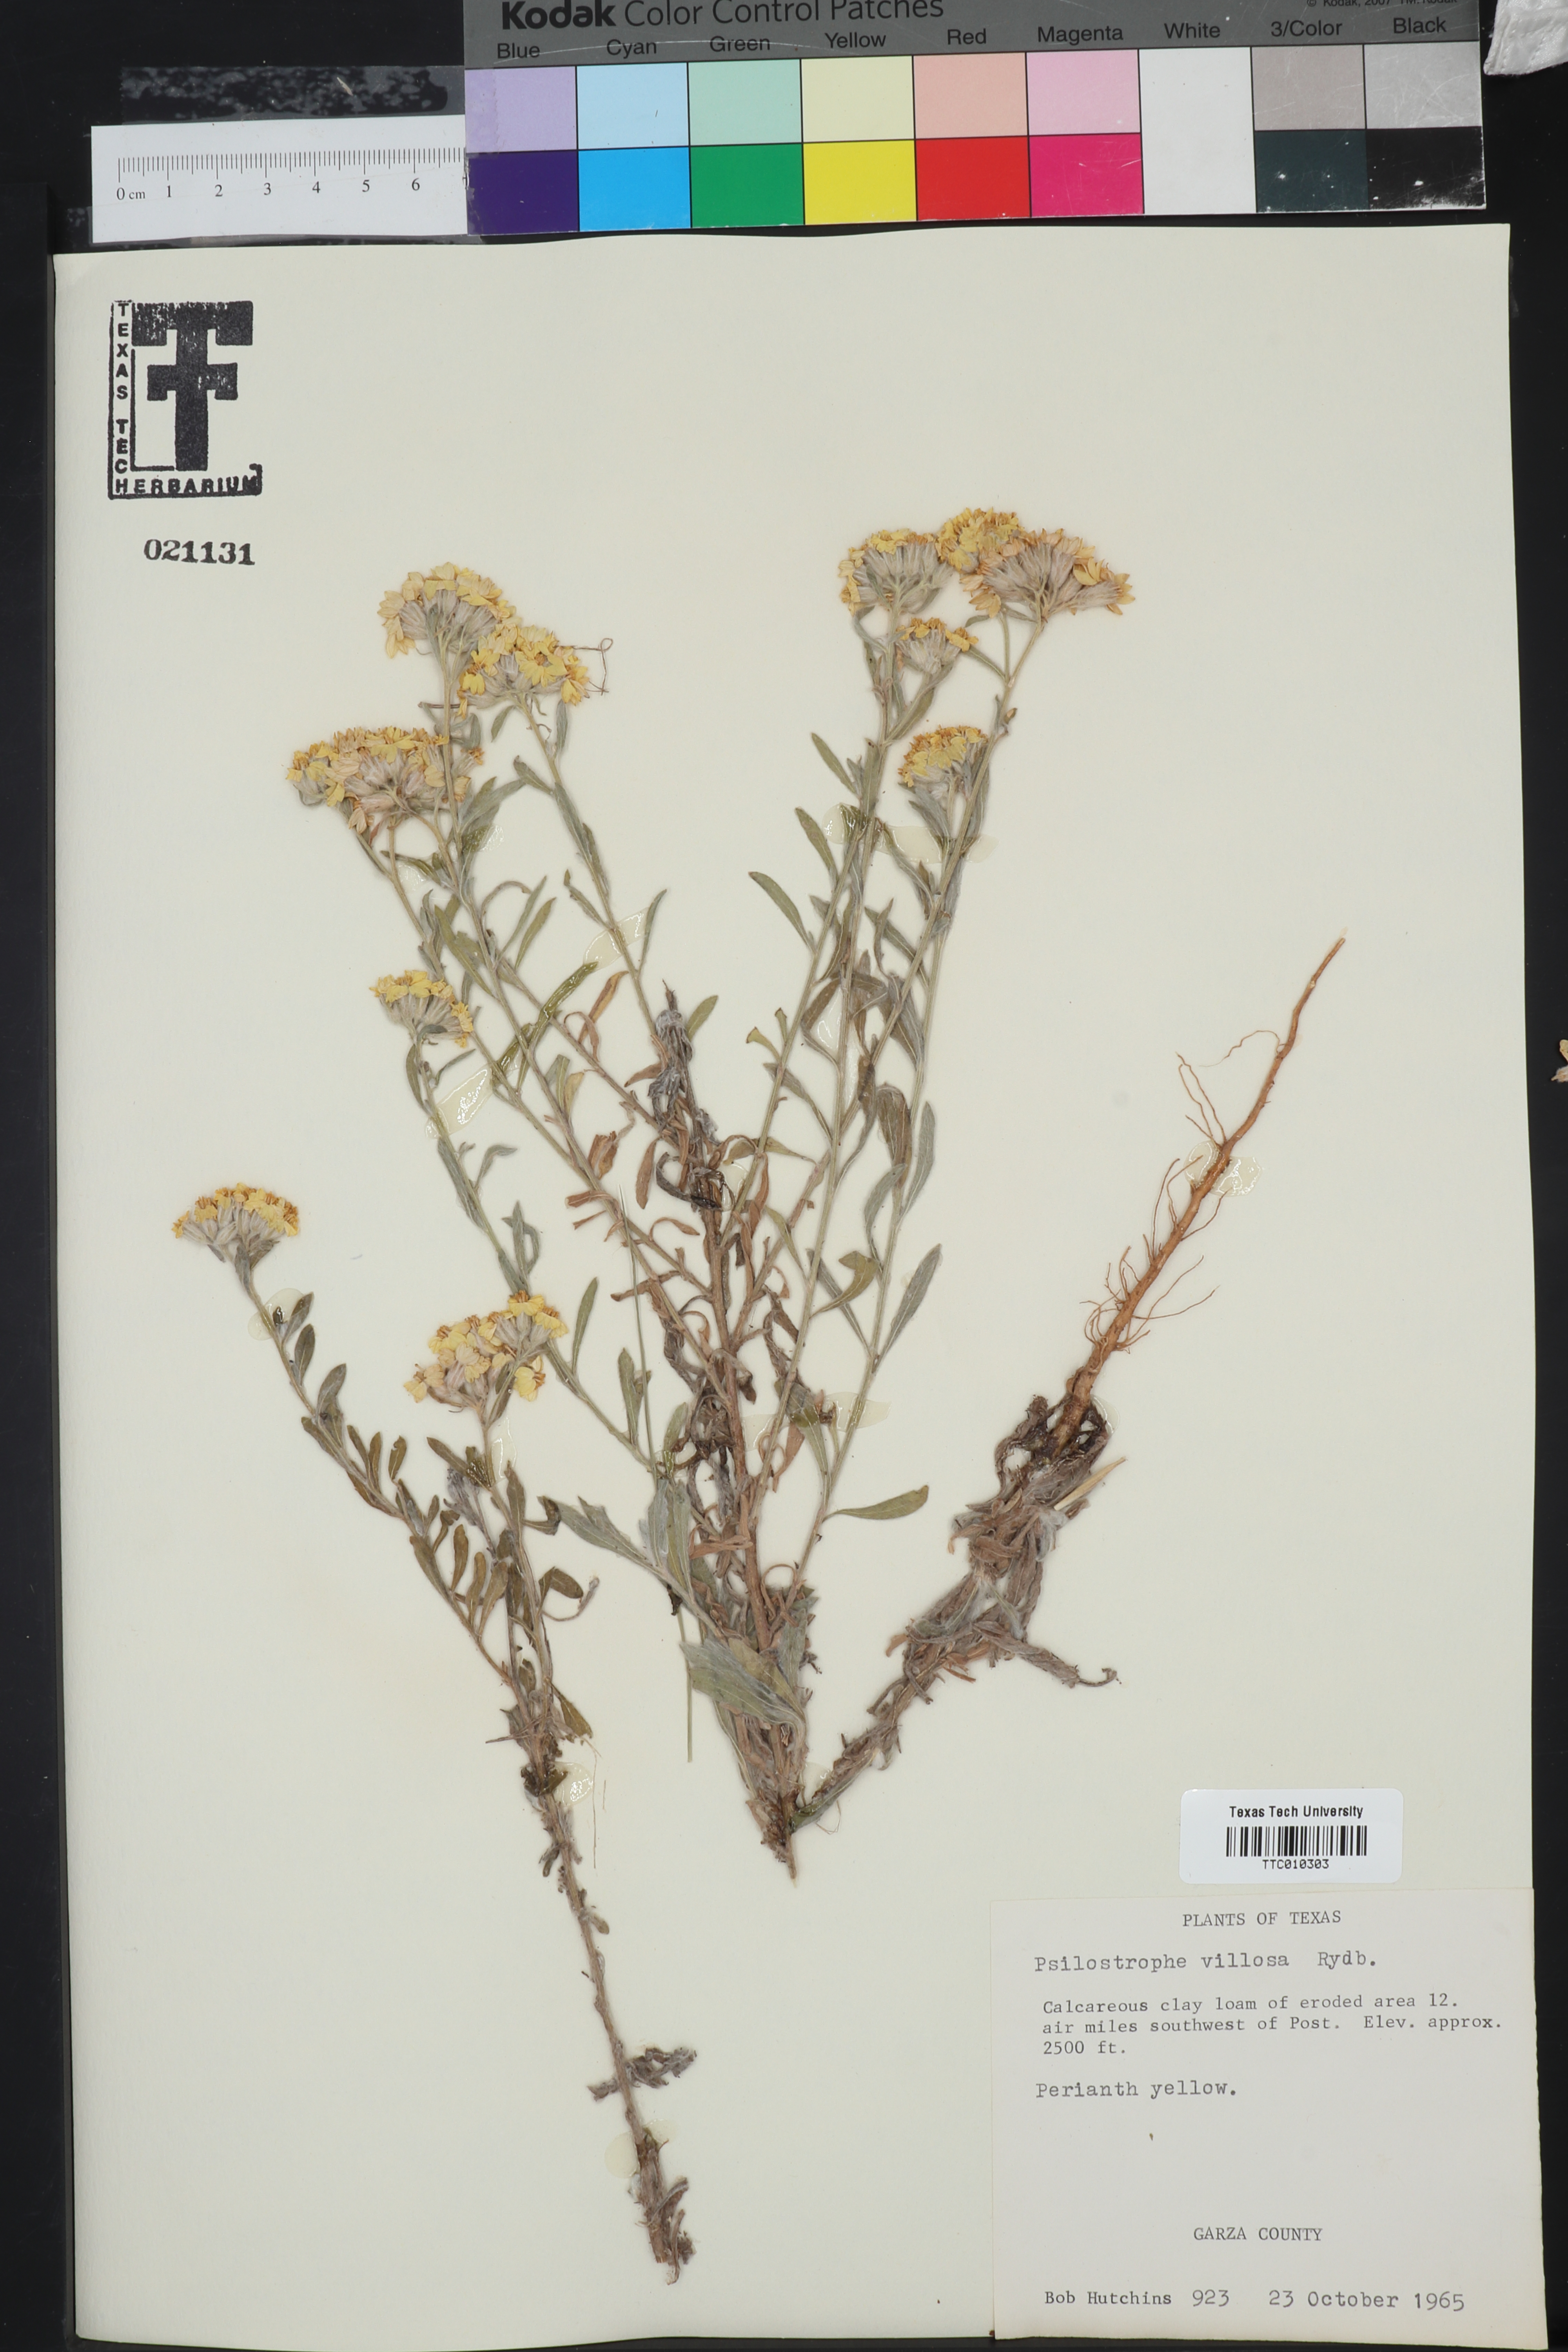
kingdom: Plantae
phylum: Tracheophyta
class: Magnoliopsida
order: Asterales
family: Asteraceae
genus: Psilostrophe
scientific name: Psilostrophe villosa
